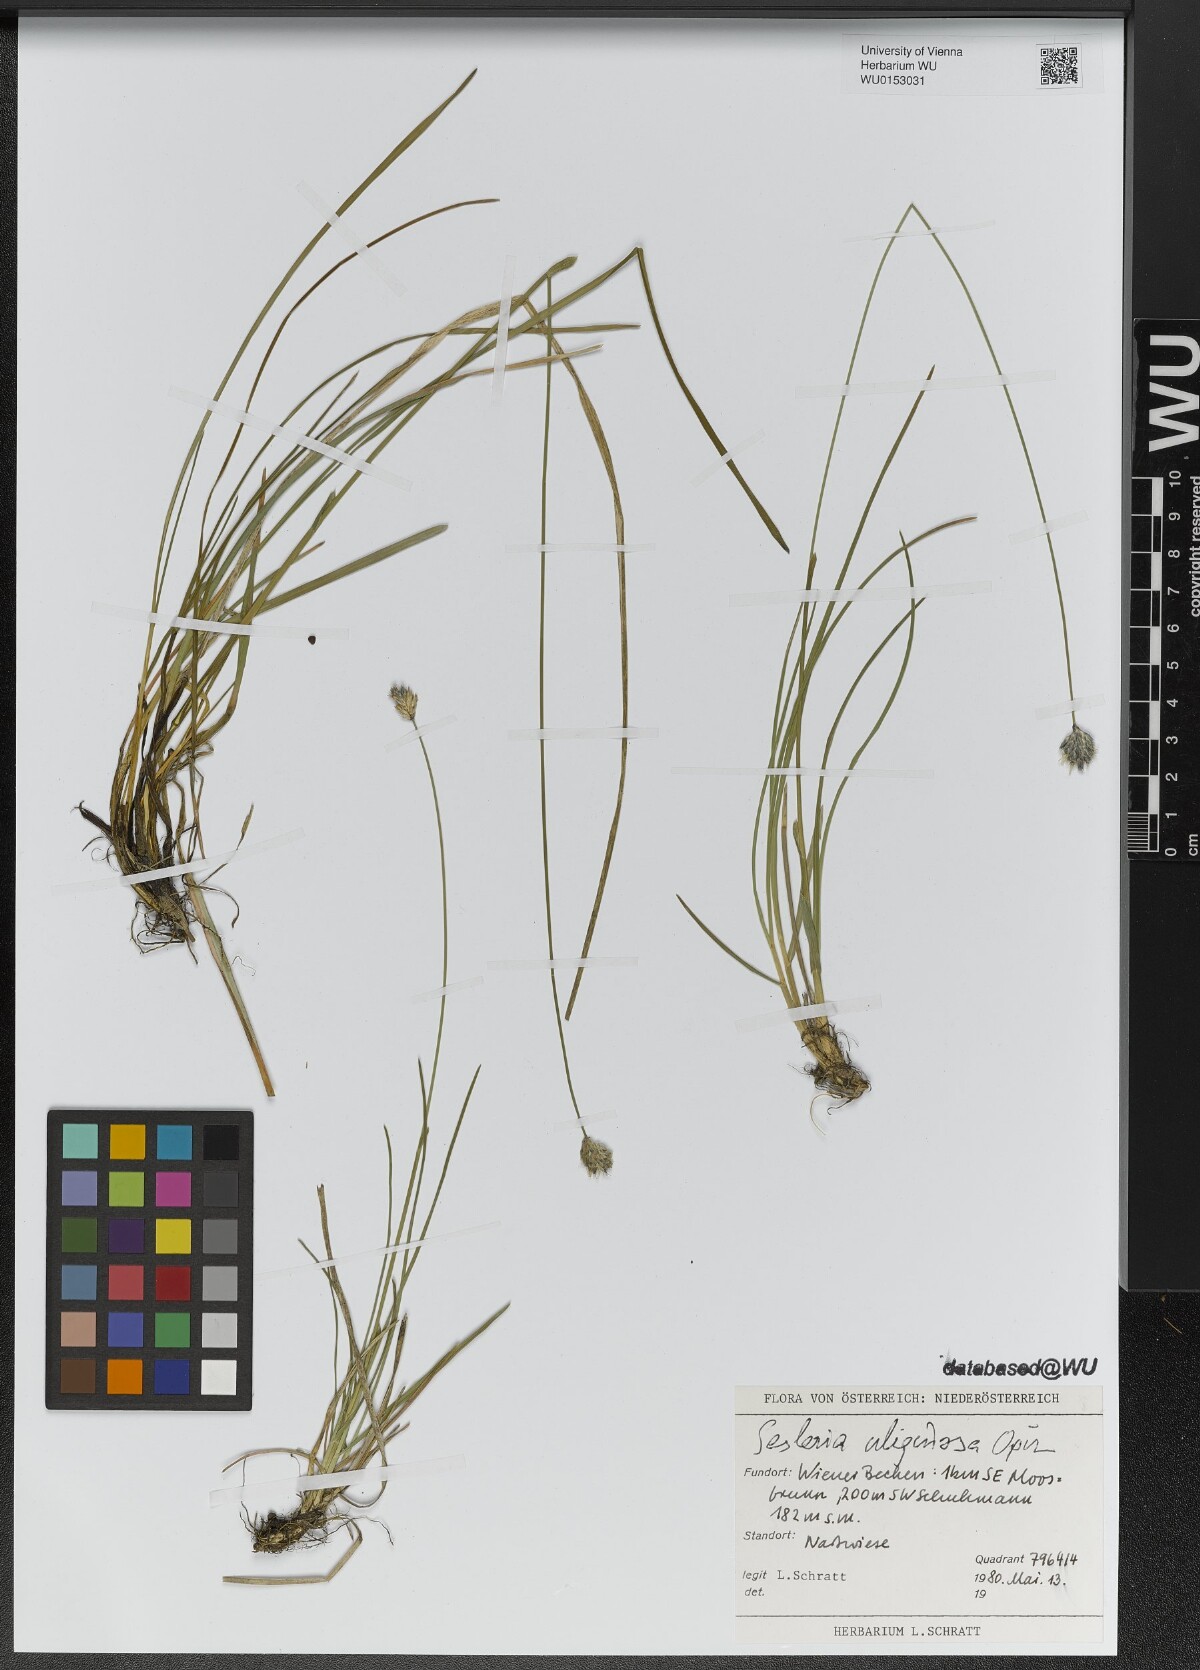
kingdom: Plantae
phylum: Tracheophyta
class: Liliopsida
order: Poales
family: Poaceae
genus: Sesleria
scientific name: Sesleria uliginosa
